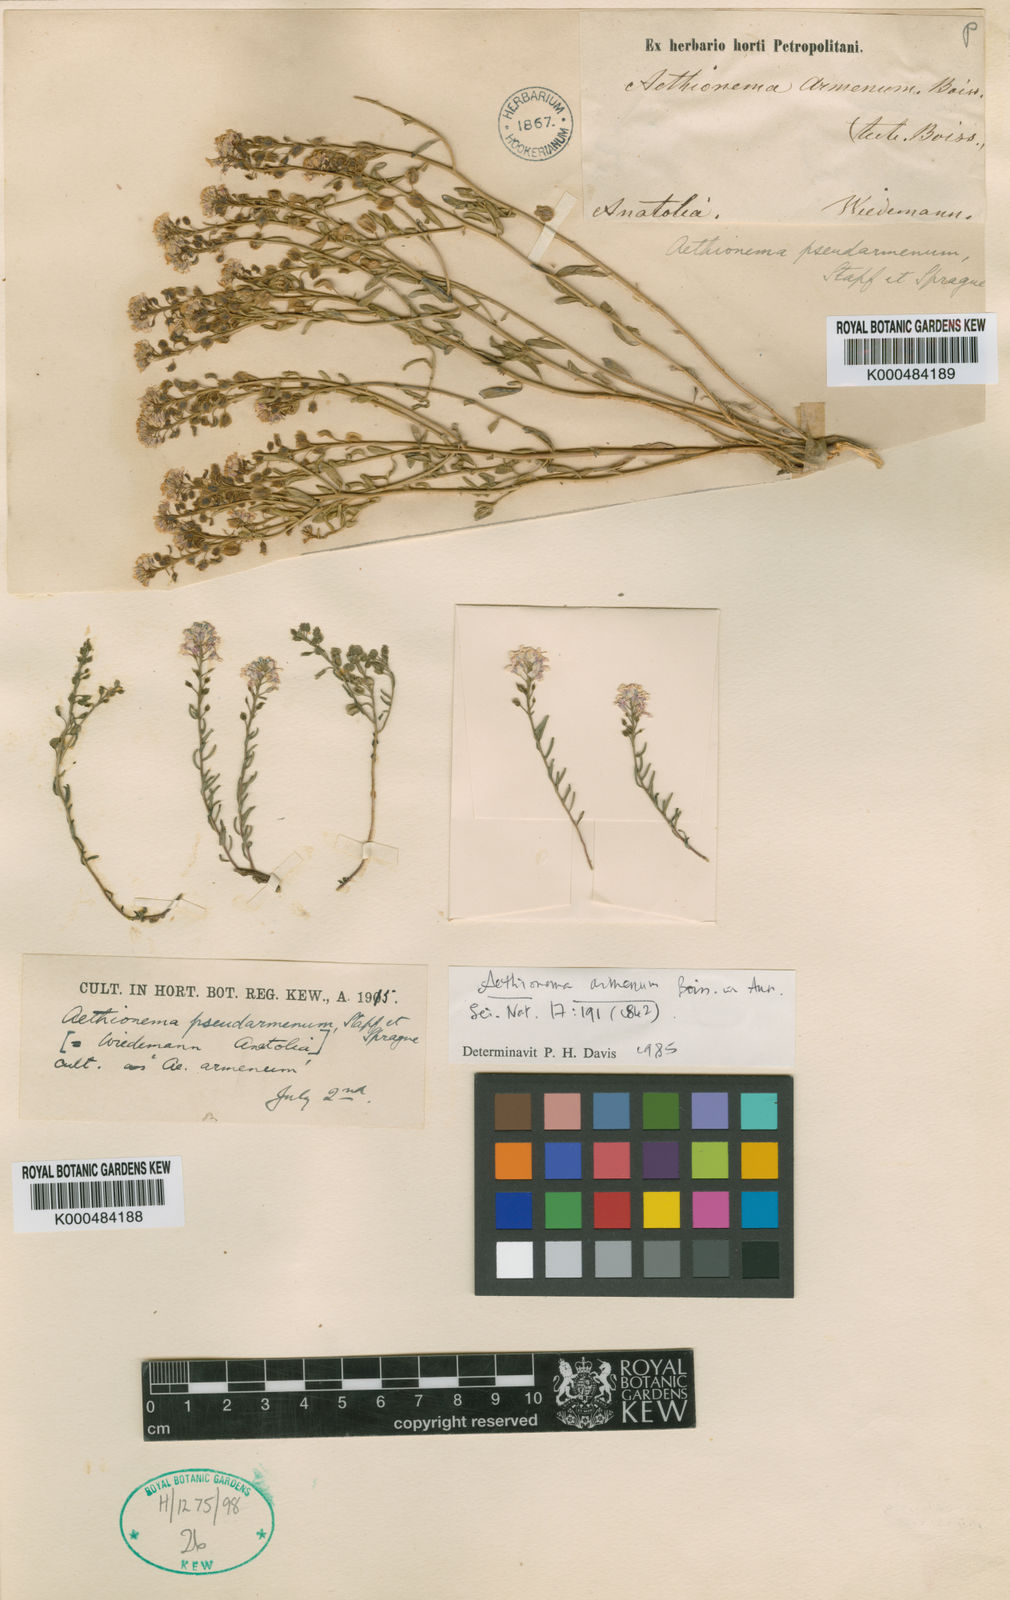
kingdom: Plantae
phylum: Tracheophyta
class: Magnoliopsida
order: Brassicales
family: Brassicaceae
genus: Aethionema
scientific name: Aethionema armenum
